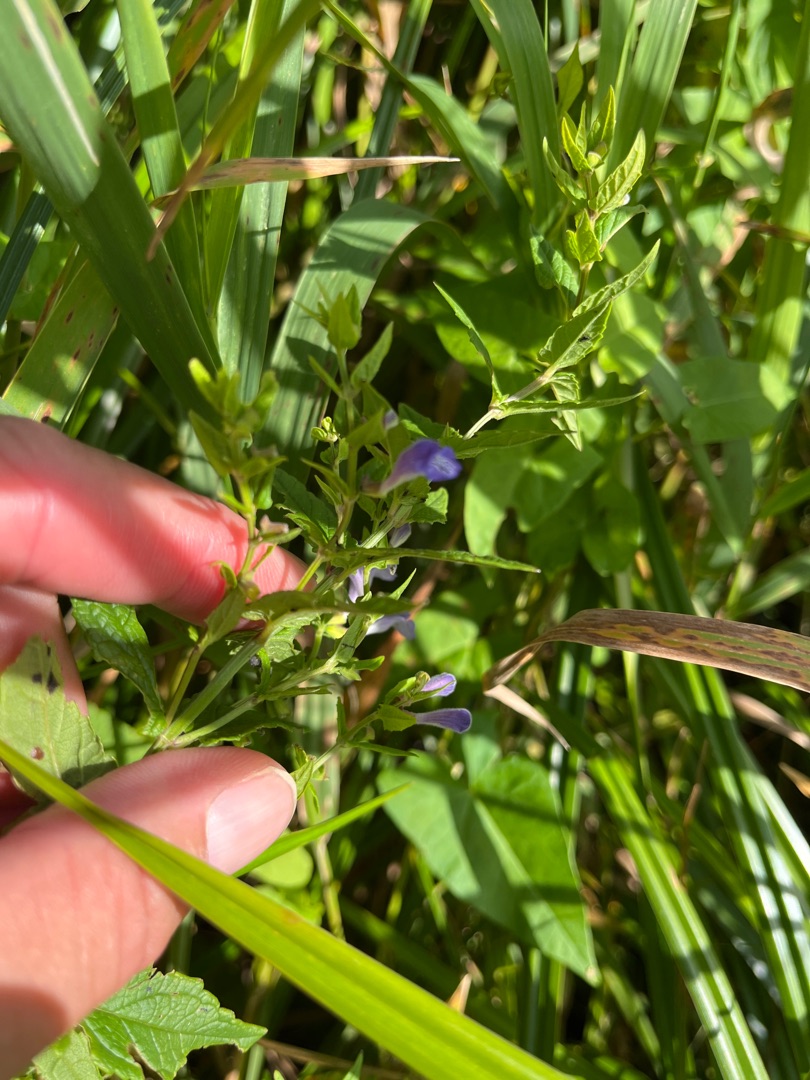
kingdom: Plantae
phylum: Tracheophyta
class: Magnoliopsida
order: Lamiales
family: Lamiaceae
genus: Scutellaria
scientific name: Scutellaria galericulata
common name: Almindelig skjolddrager
